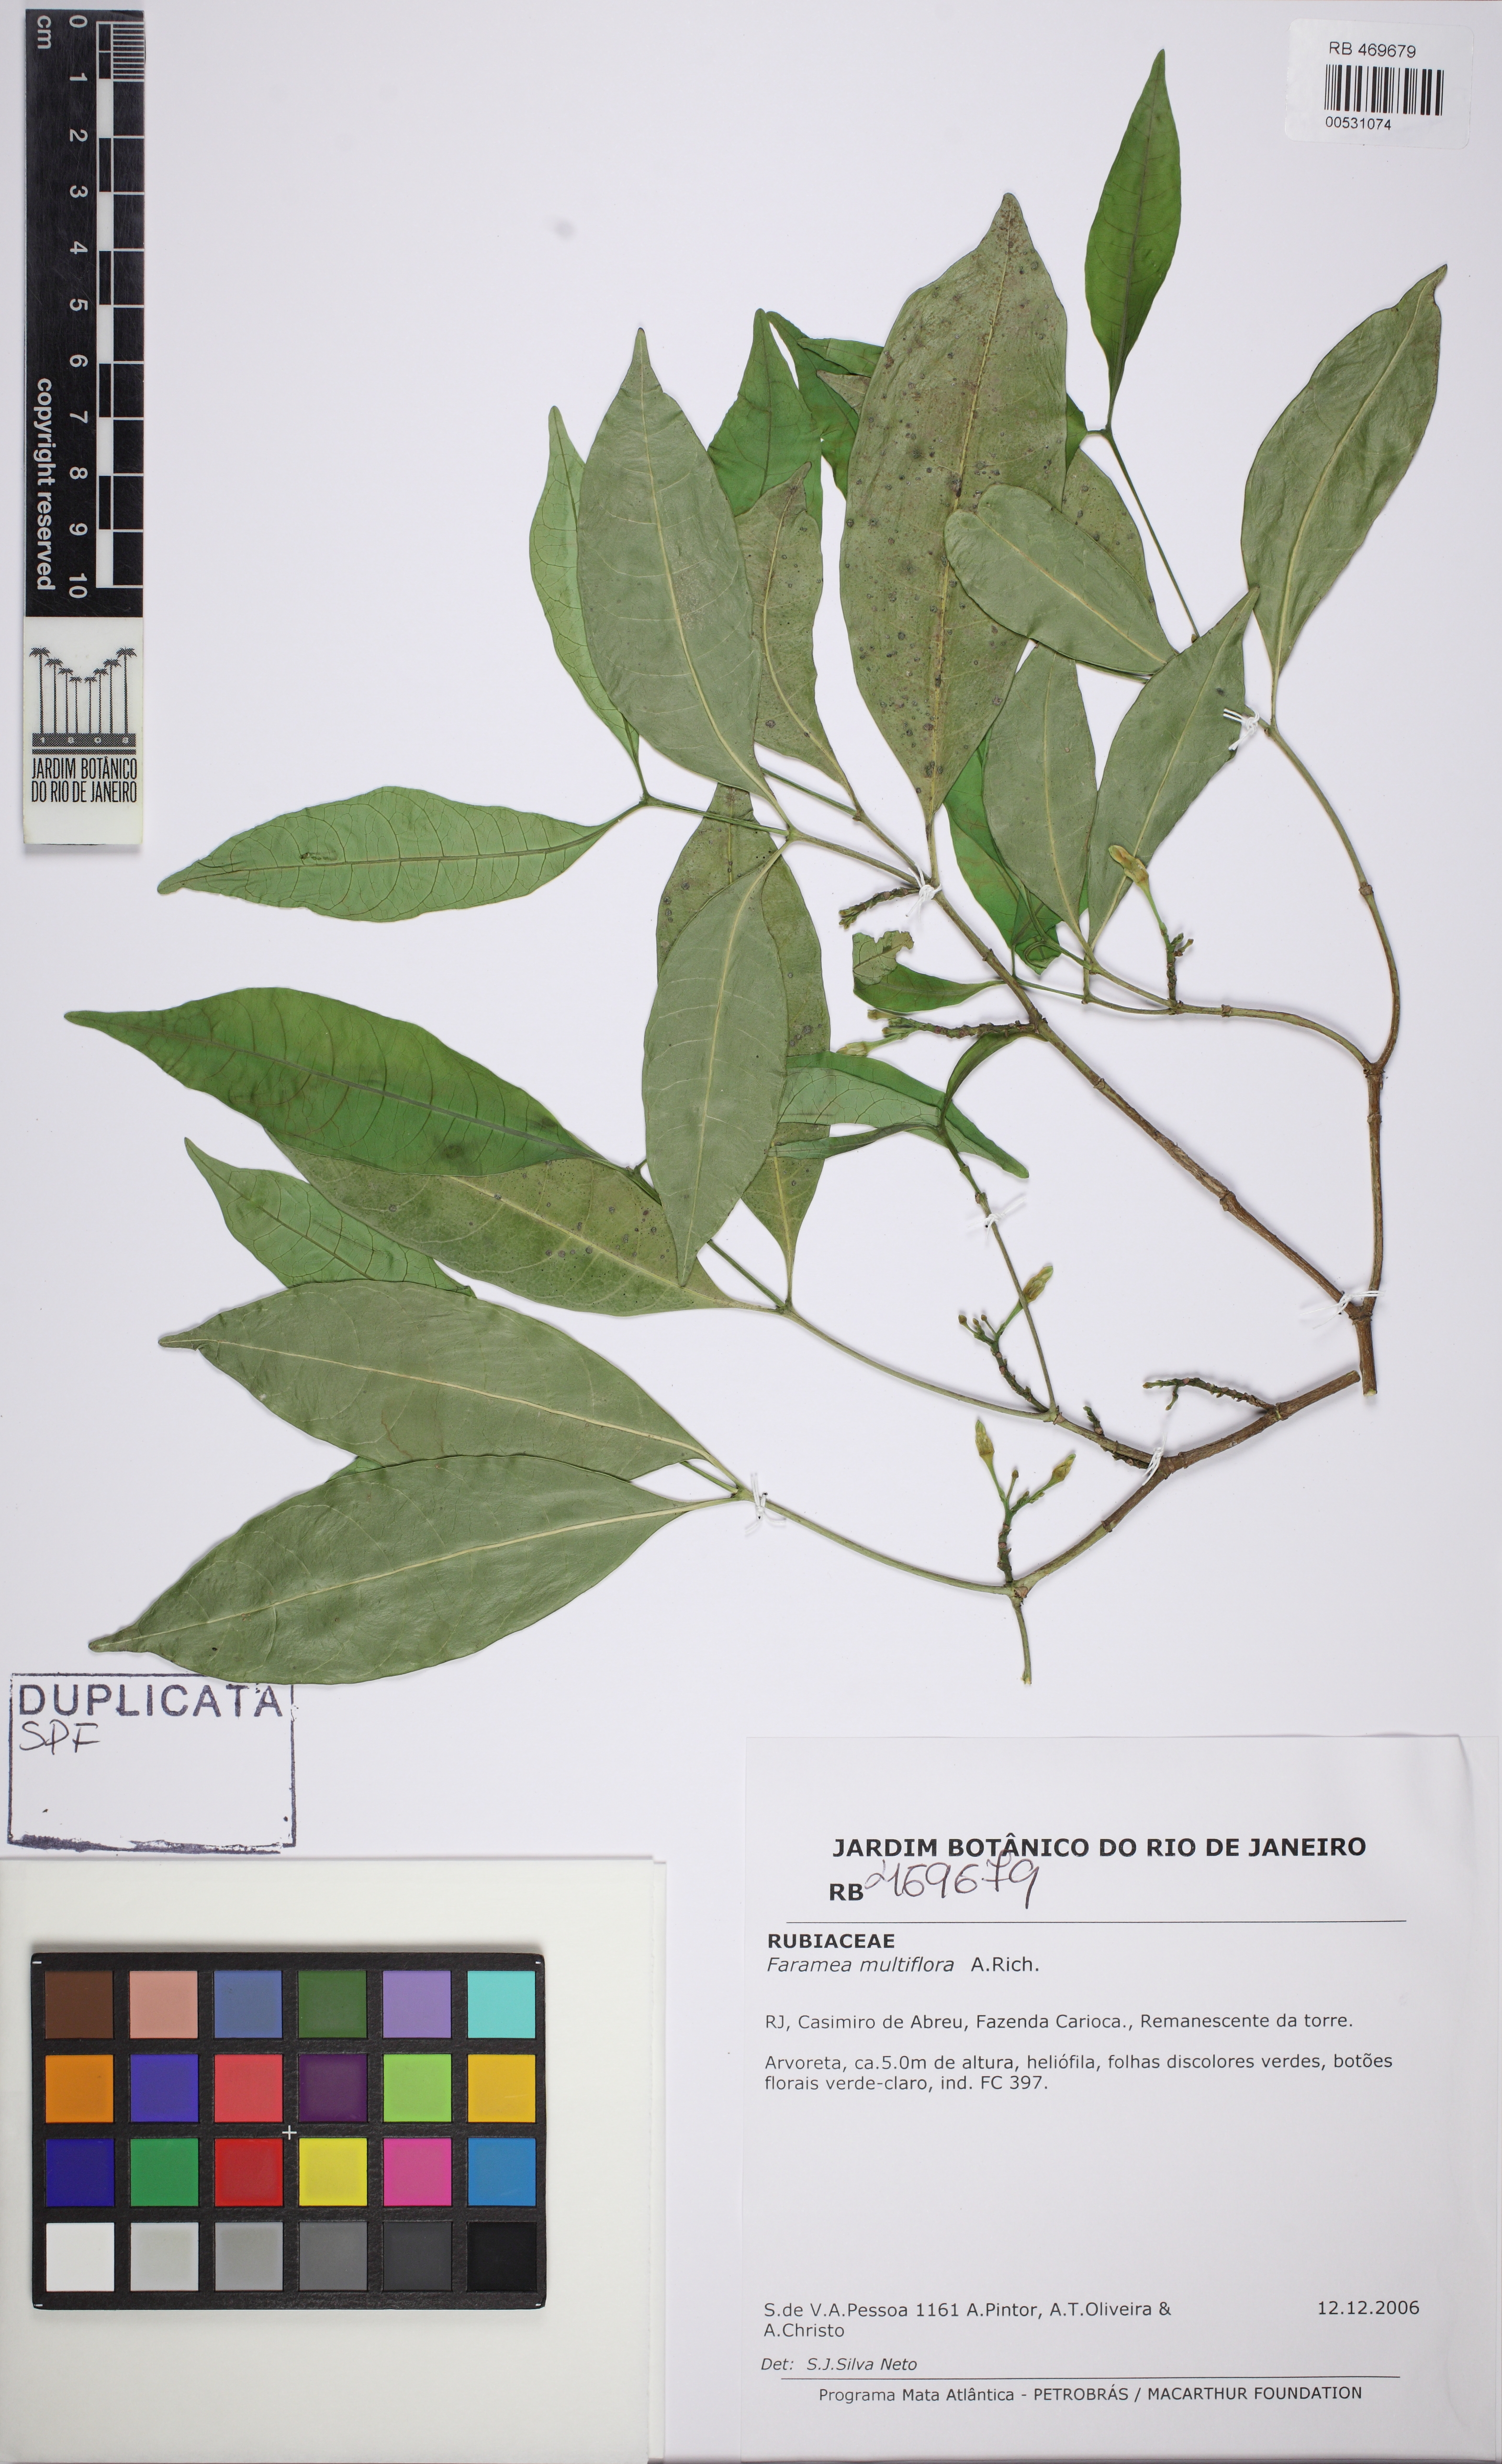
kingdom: Plantae
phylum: Tracheophyta
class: Magnoliopsida
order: Gentianales
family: Rubiaceae
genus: Faramea
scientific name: Faramea multiflora
